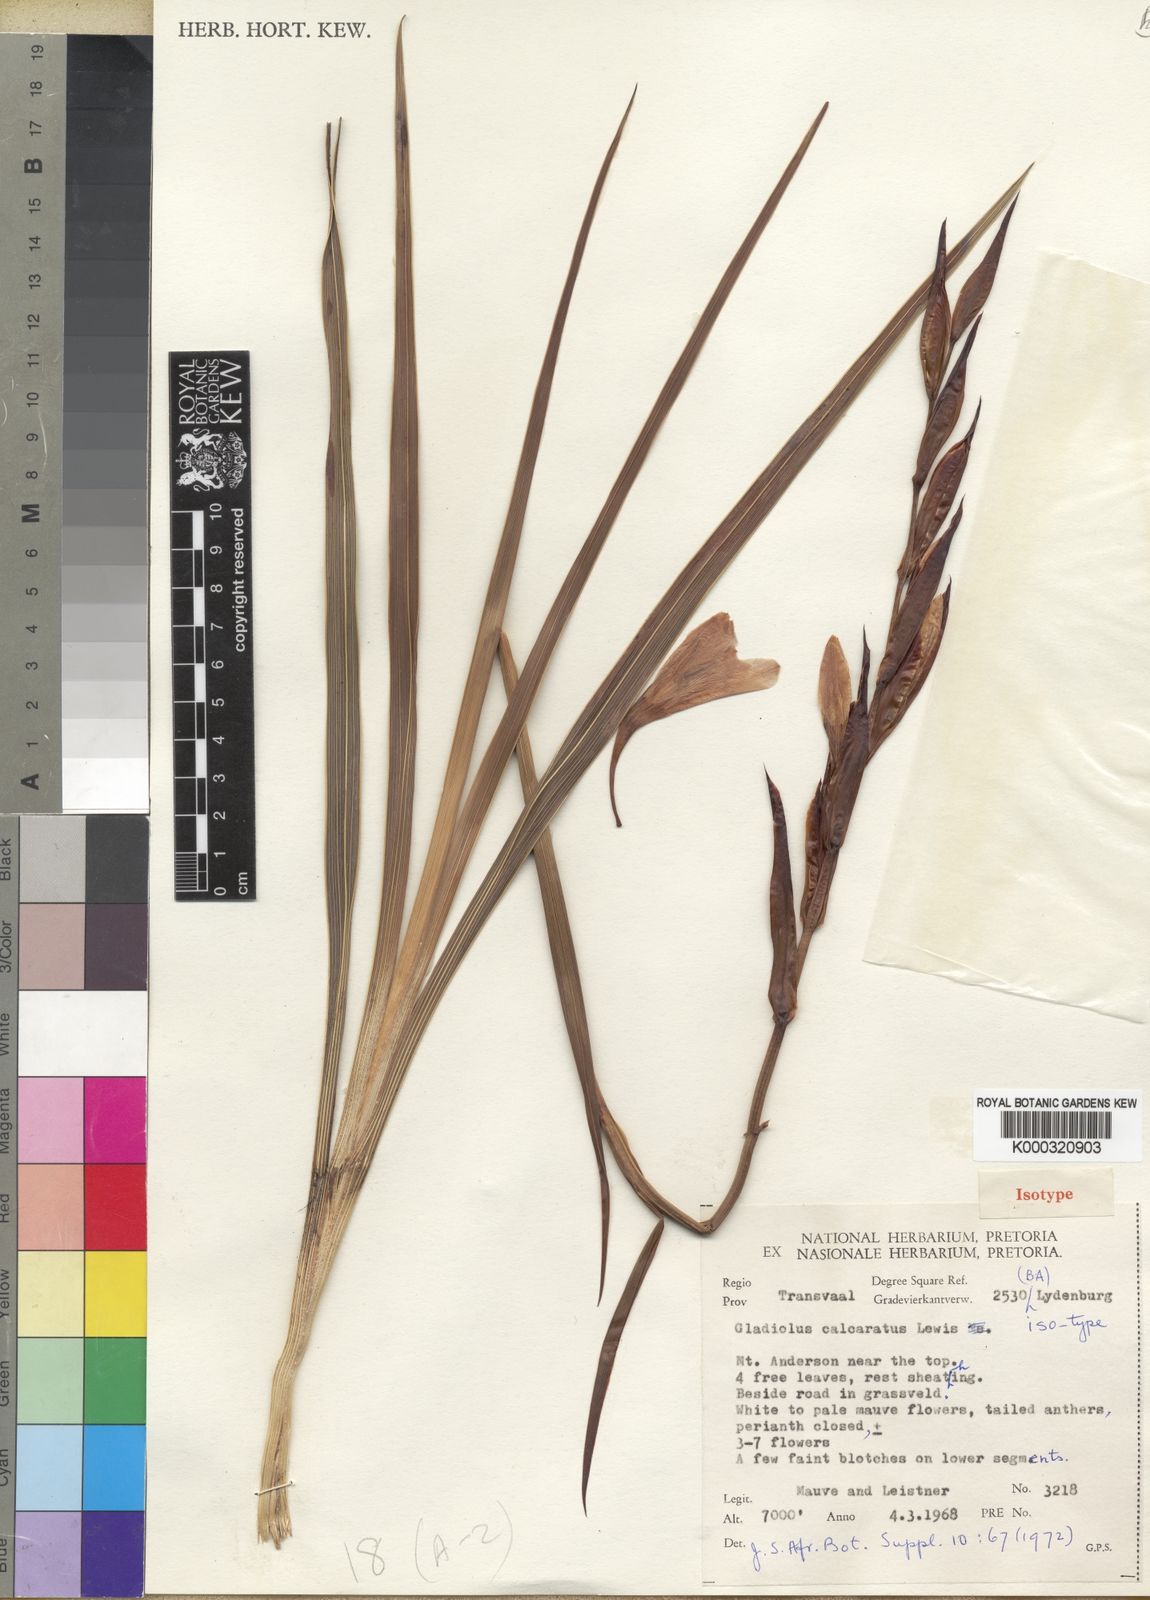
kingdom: Plantae
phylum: Tracheophyta
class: Liliopsida
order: Asparagales
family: Iridaceae
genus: Gladiolus
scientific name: Gladiolus calcaratus
